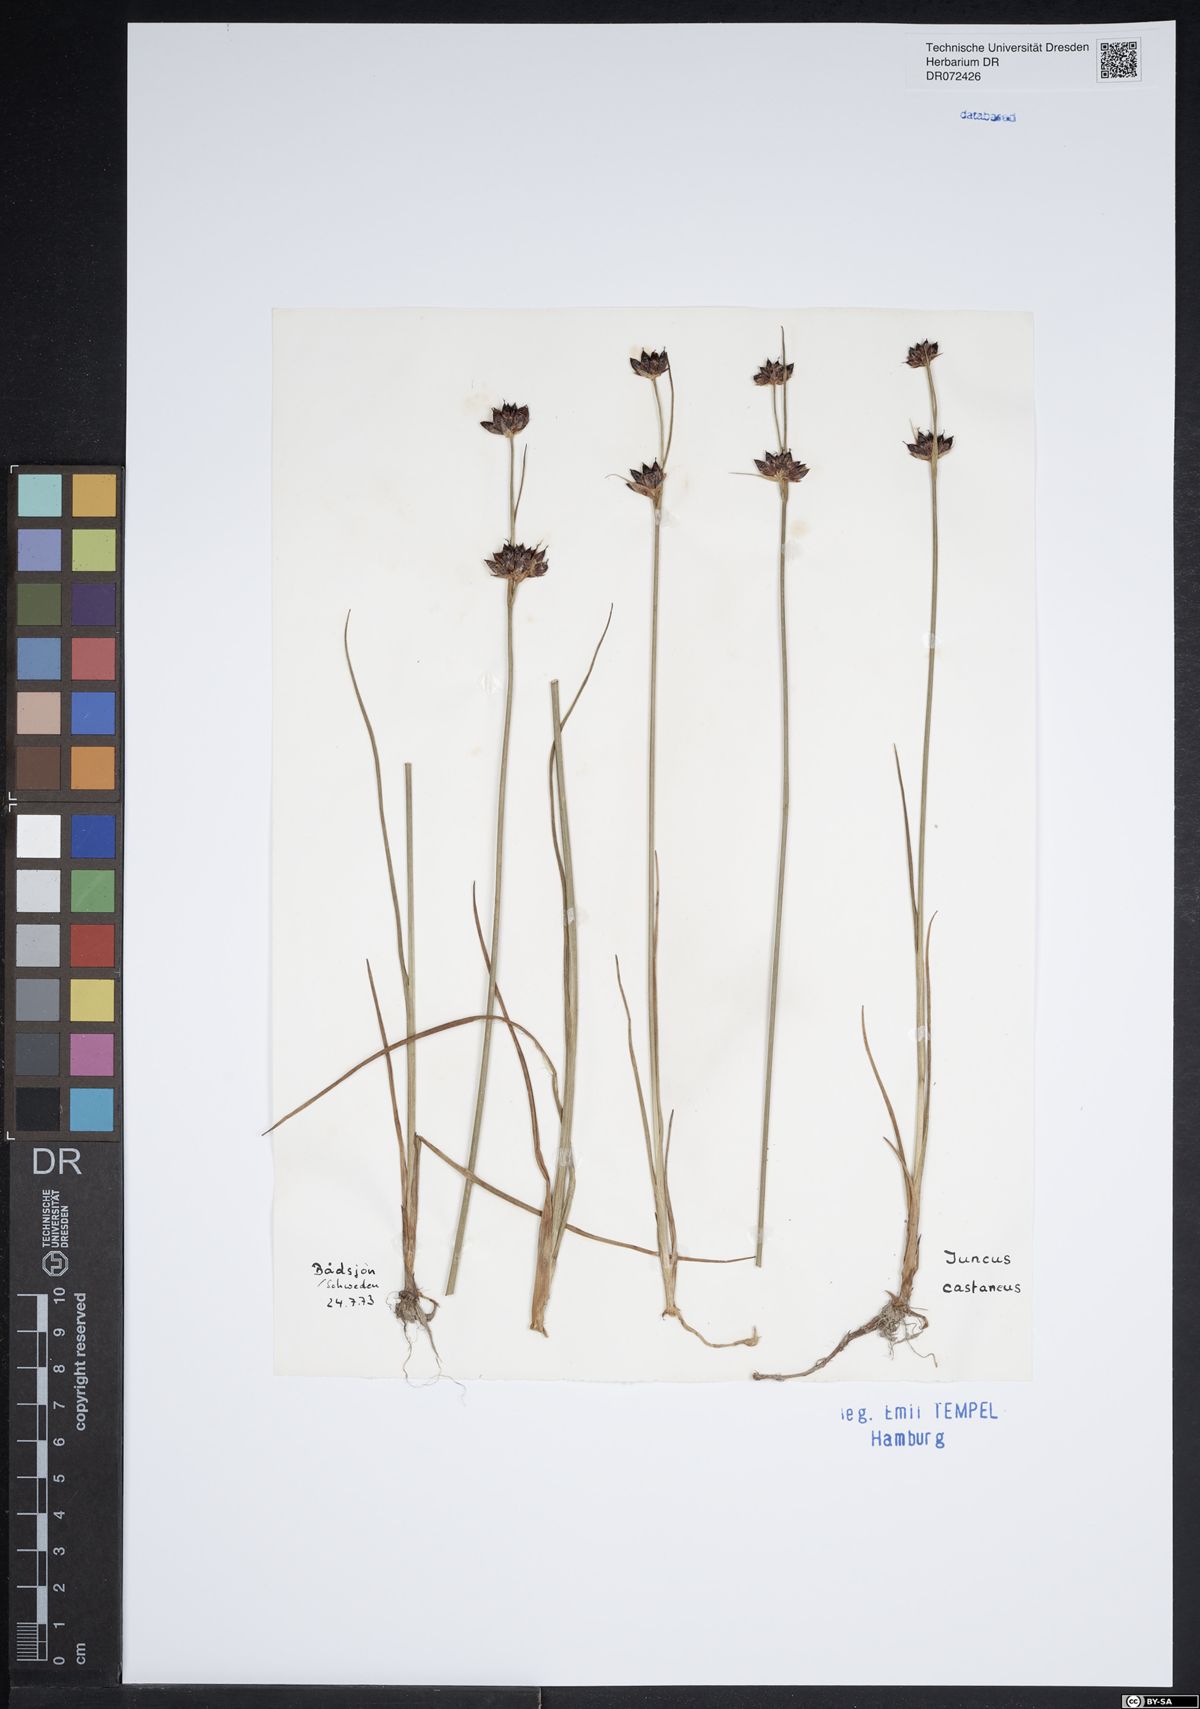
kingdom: Plantae
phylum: Tracheophyta
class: Liliopsida
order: Poales
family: Juncaceae
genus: Juncus
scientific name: Juncus castaneus
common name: Chestnut rush
